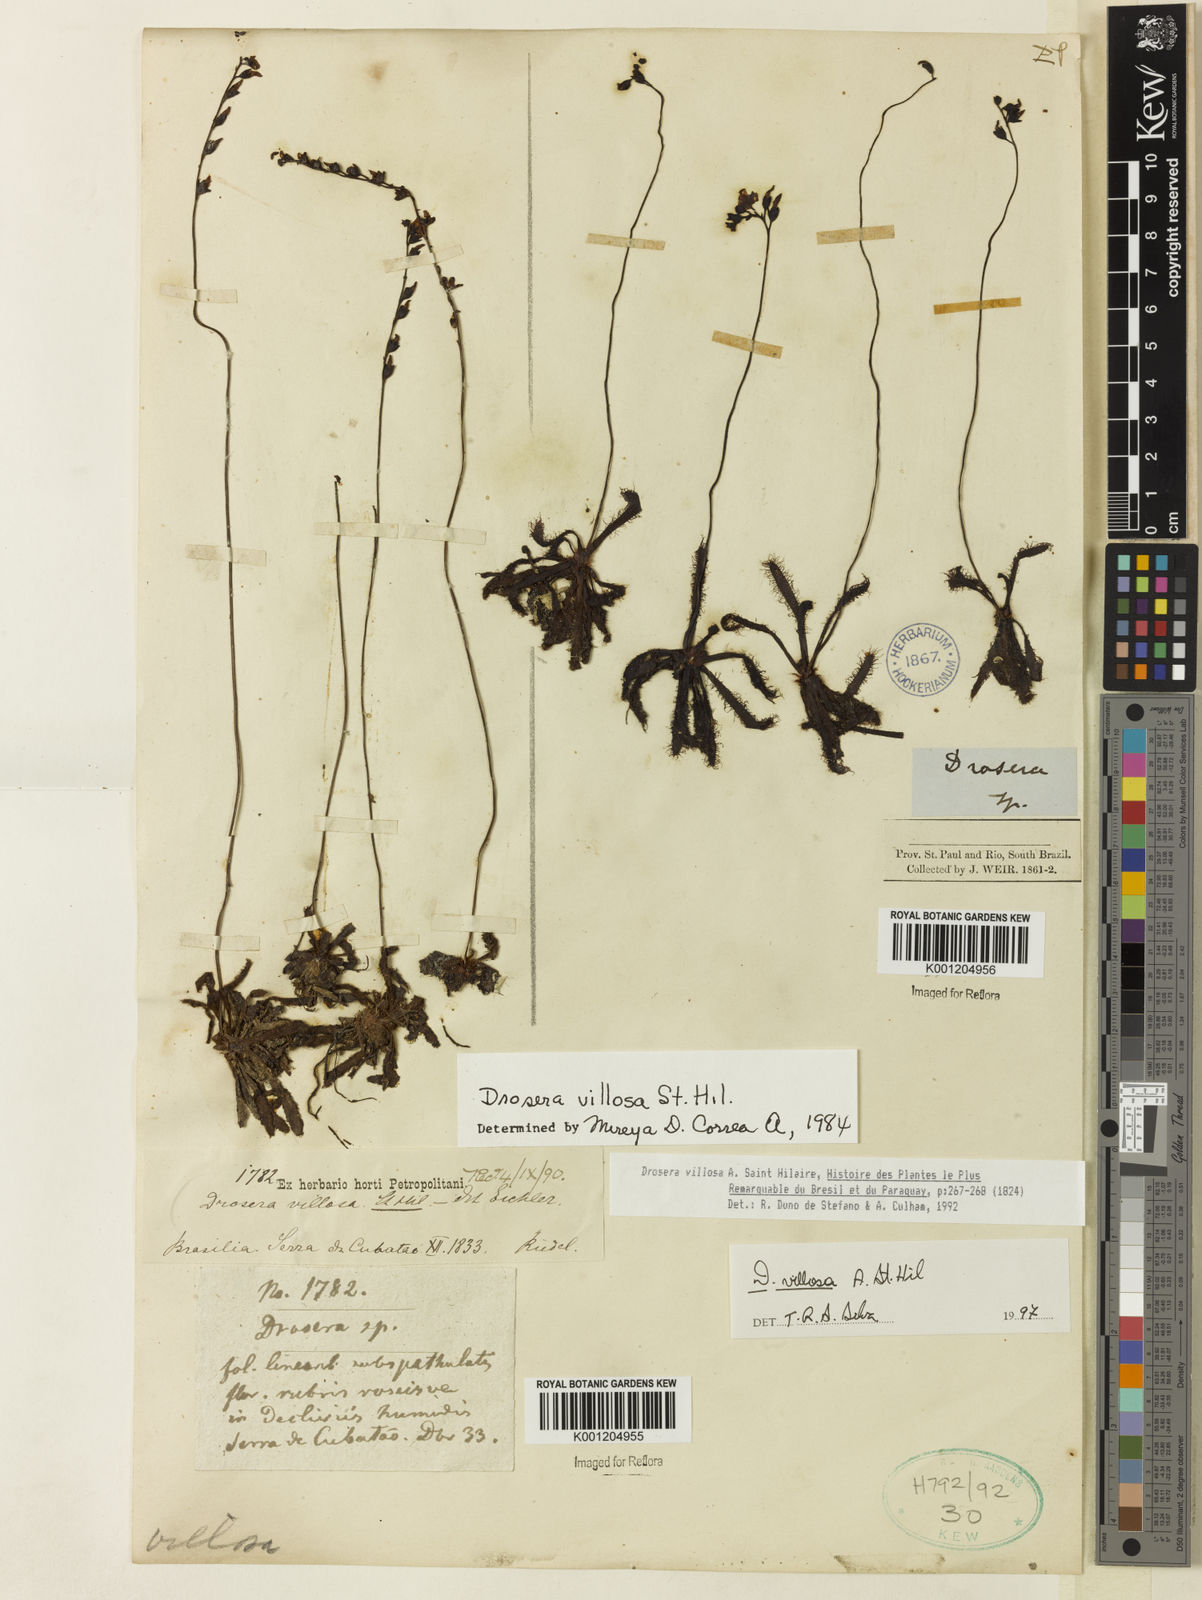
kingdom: Plantae
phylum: Tracheophyta
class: Magnoliopsida
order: Caryophyllales
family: Droseraceae
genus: Drosera
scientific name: Drosera villosa
